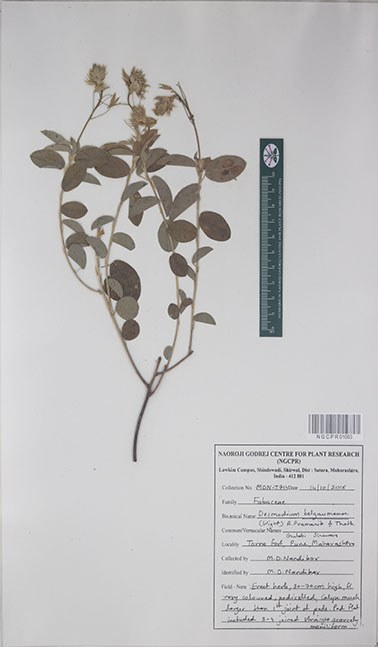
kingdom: Plantae
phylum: Tracheophyta
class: Magnoliopsida
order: Fabales
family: Fabaceae
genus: Alysicarpus
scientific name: Alysicarpus belgaumensis
